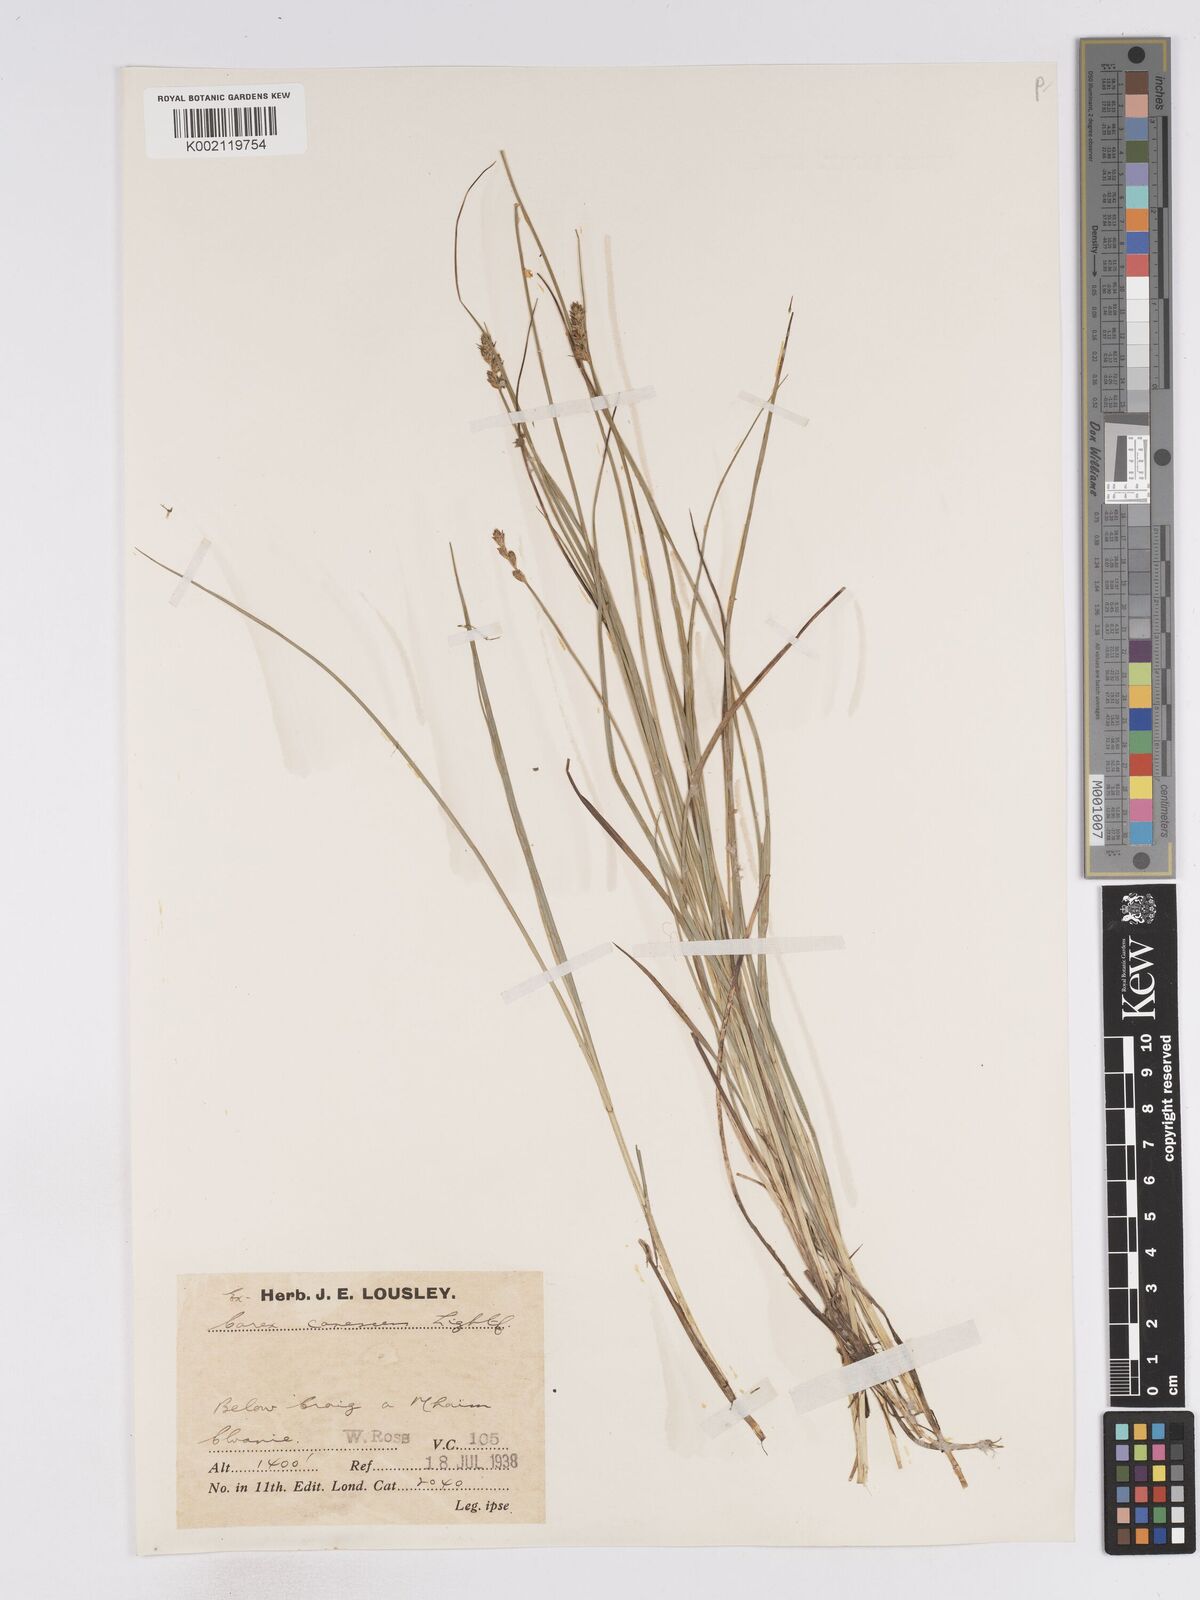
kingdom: Plantae
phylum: Tracheophyta
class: Liliopsida
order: Poales
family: Cyperaceae
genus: Carex
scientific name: Carex curta
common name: White sedge
